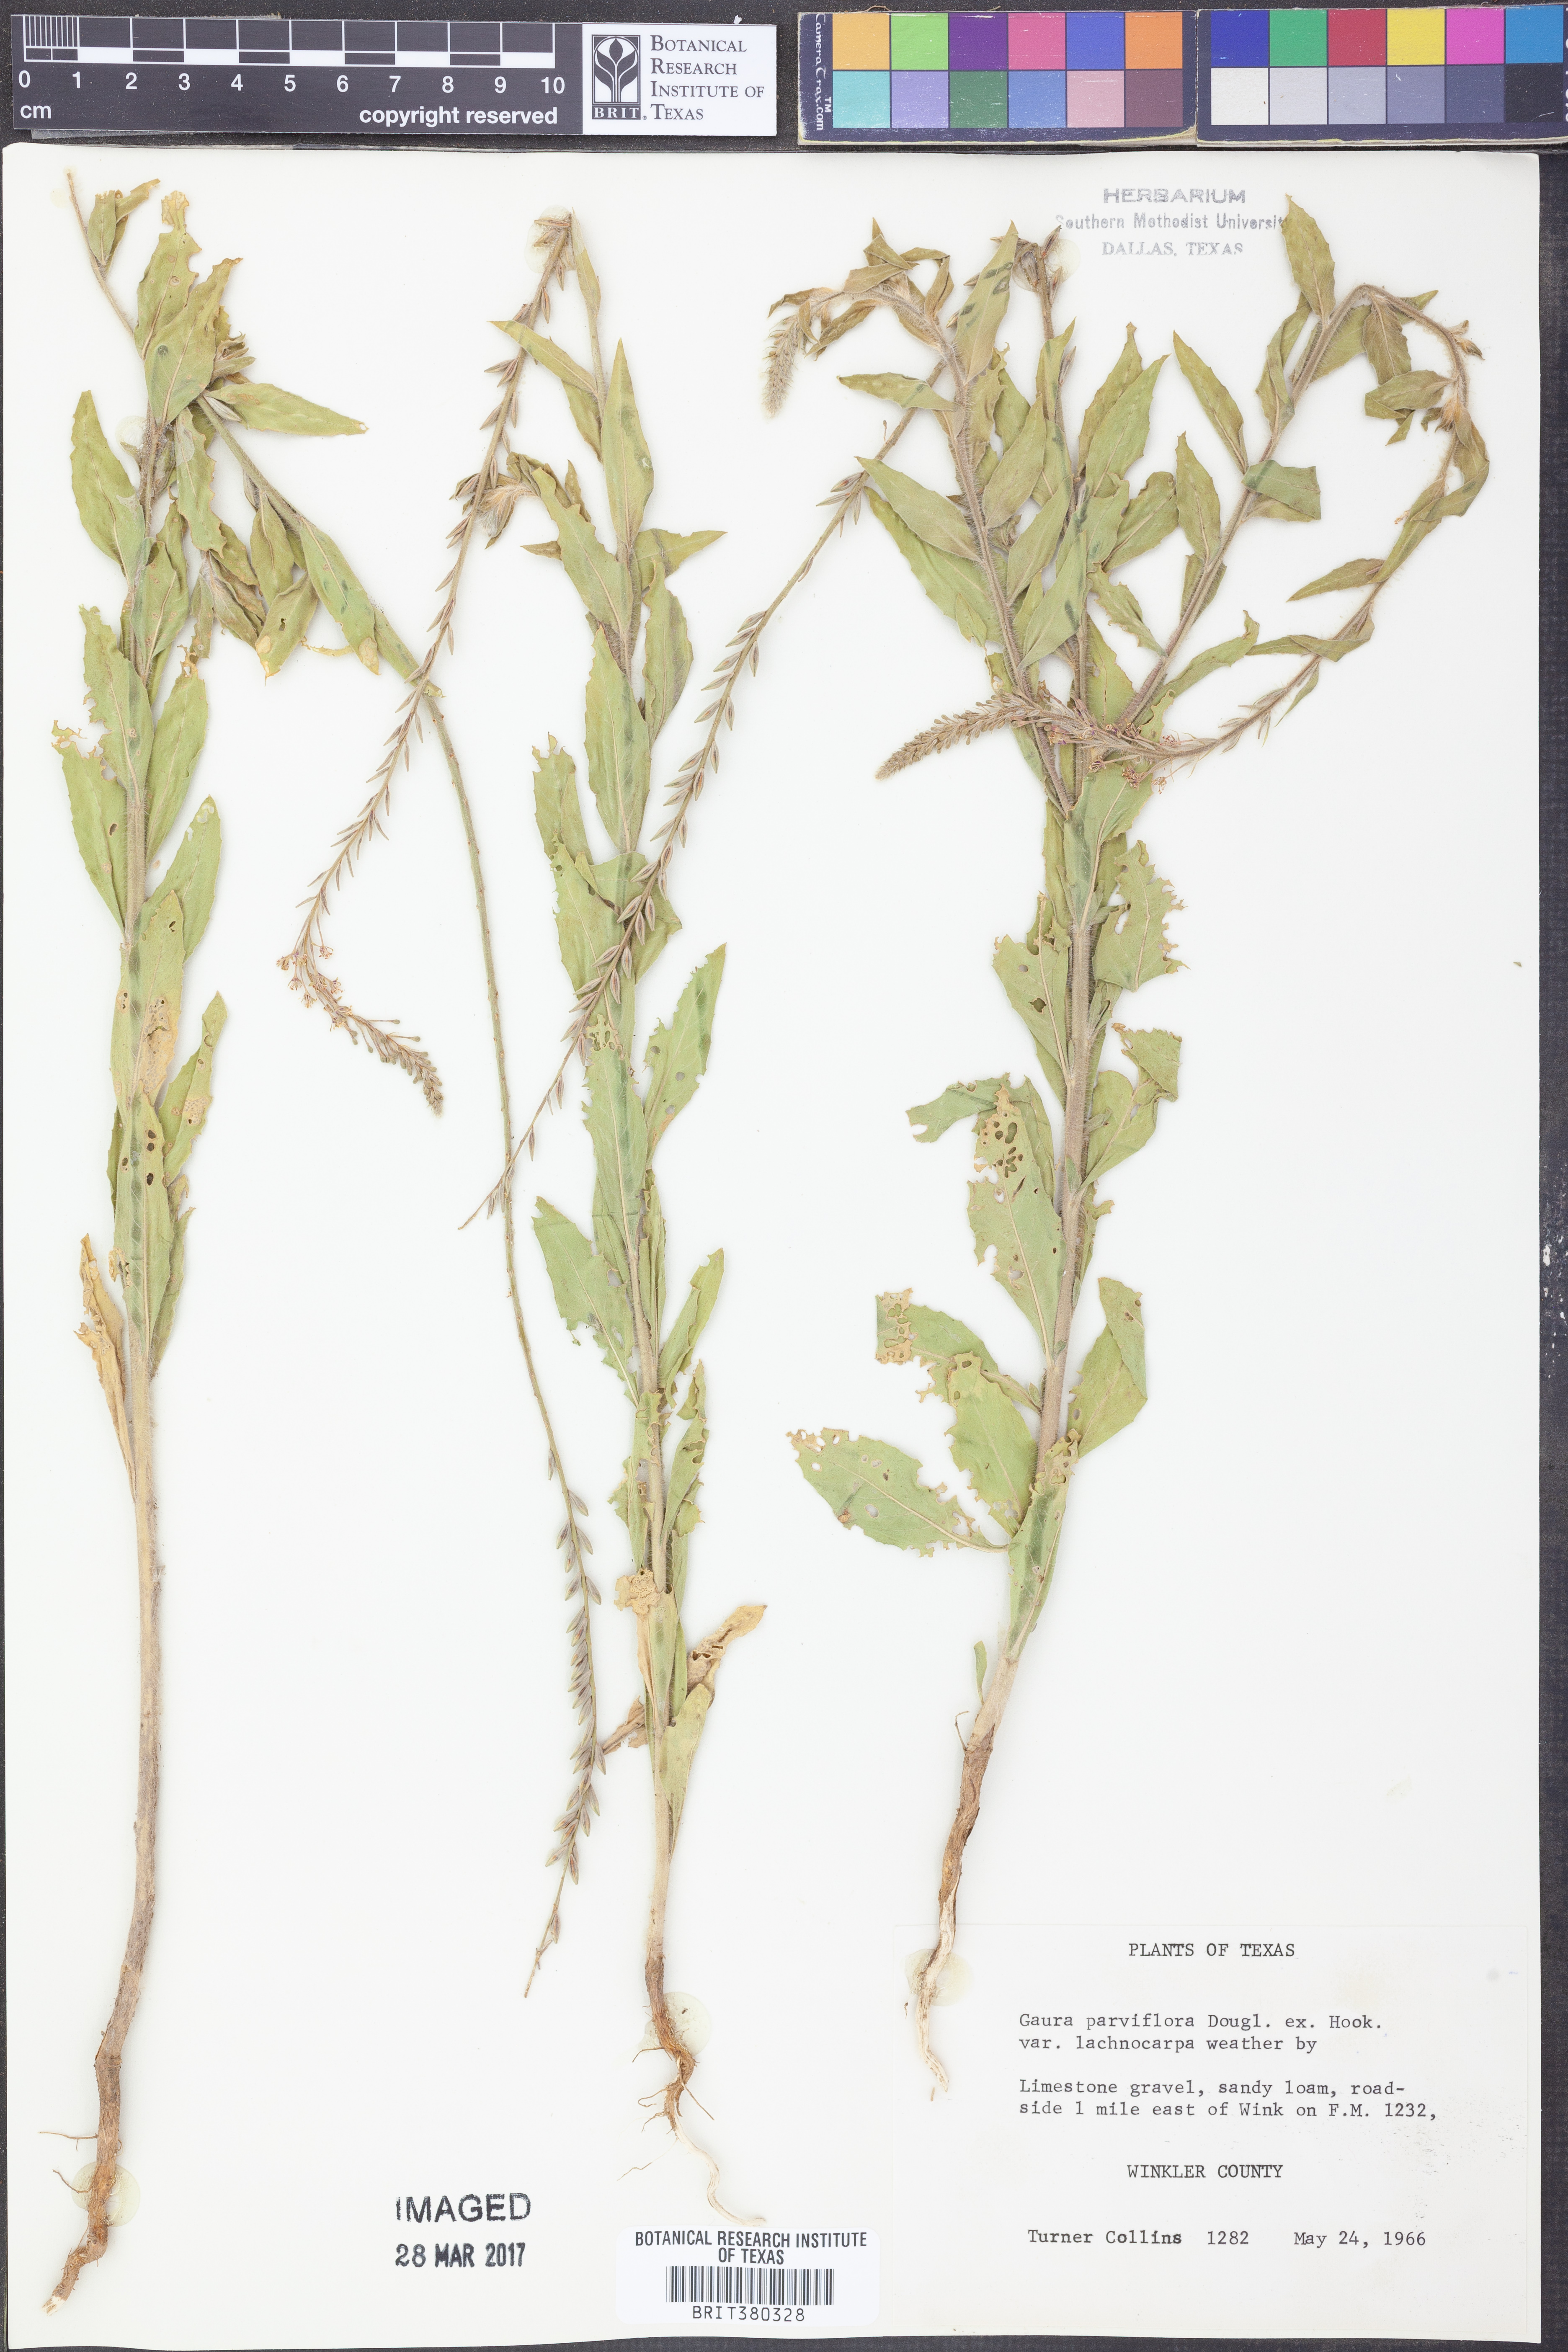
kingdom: Plantae
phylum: Tracheophyta
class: Magnoliopsida
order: Myrtales
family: Onagraceae
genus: Oenothera
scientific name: Oenothera curtiflora
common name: Velvetweed
